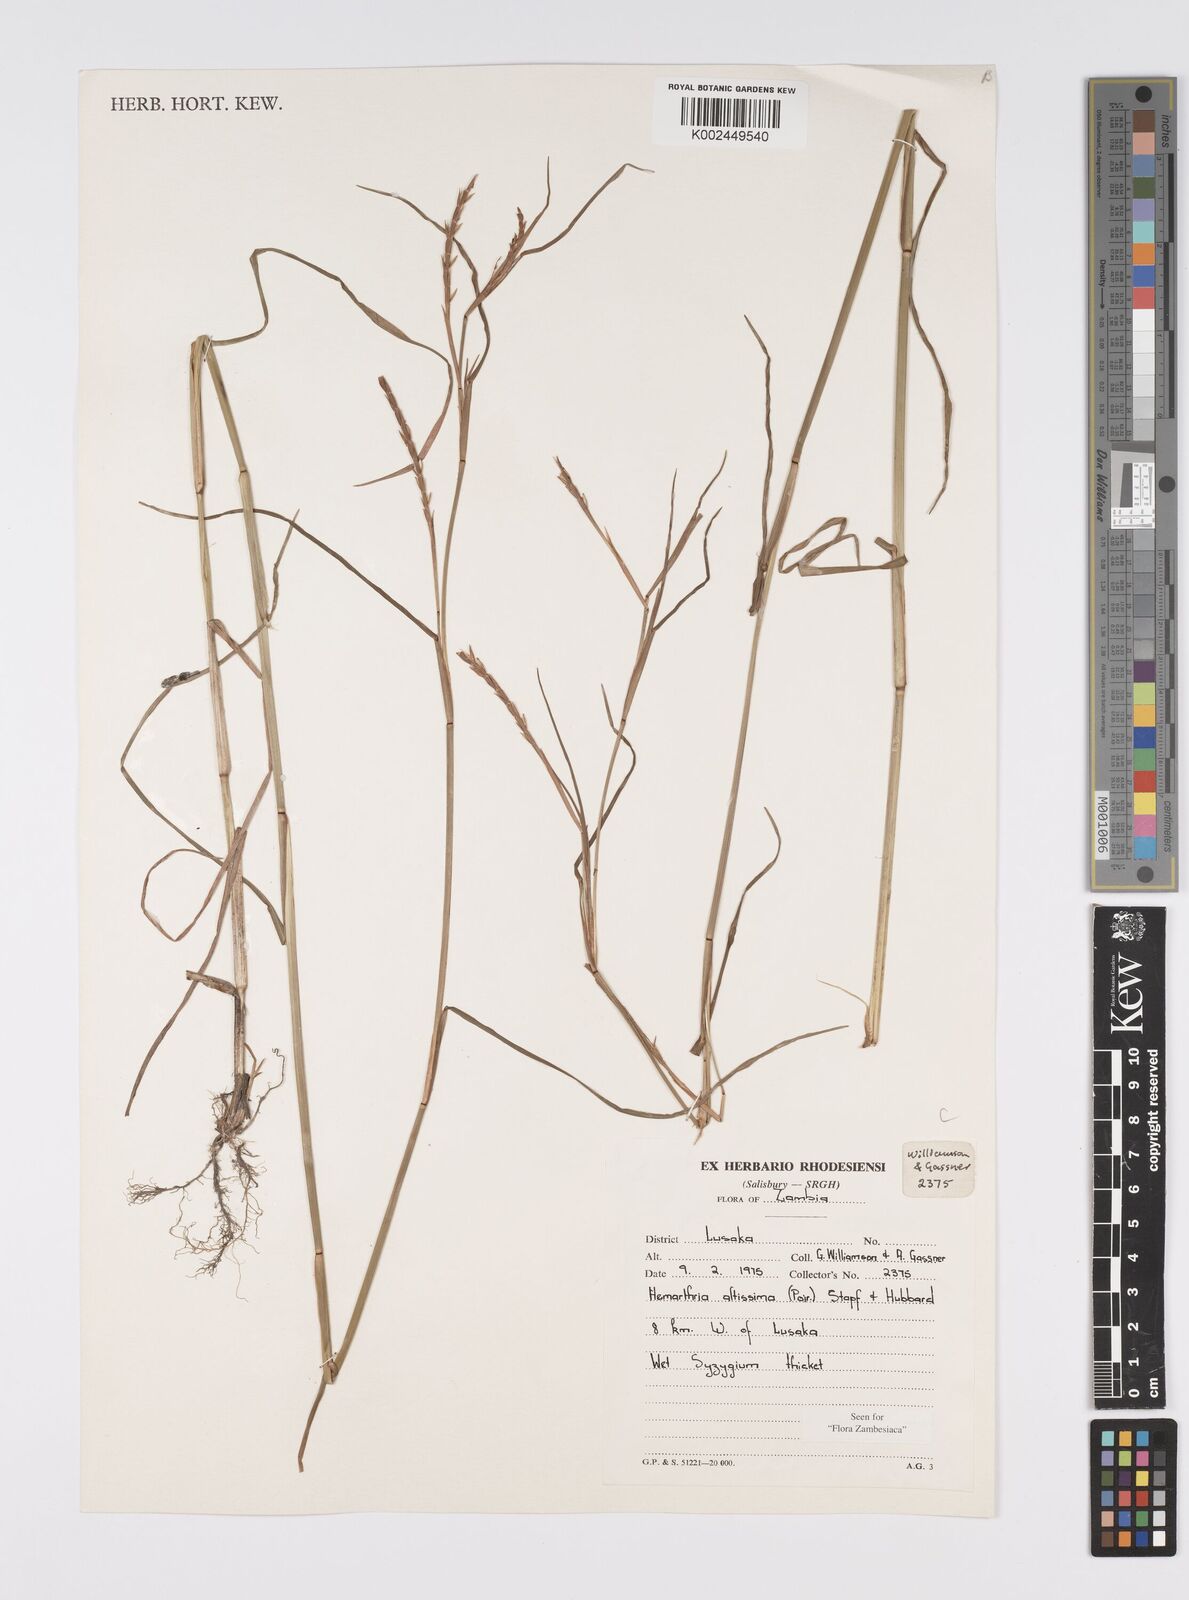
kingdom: Plantae
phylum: Tracheophyta
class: Liliopsida
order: Poales
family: Poaceae
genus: Hemarthria
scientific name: Hemarthria altissima
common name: African jointgrass
